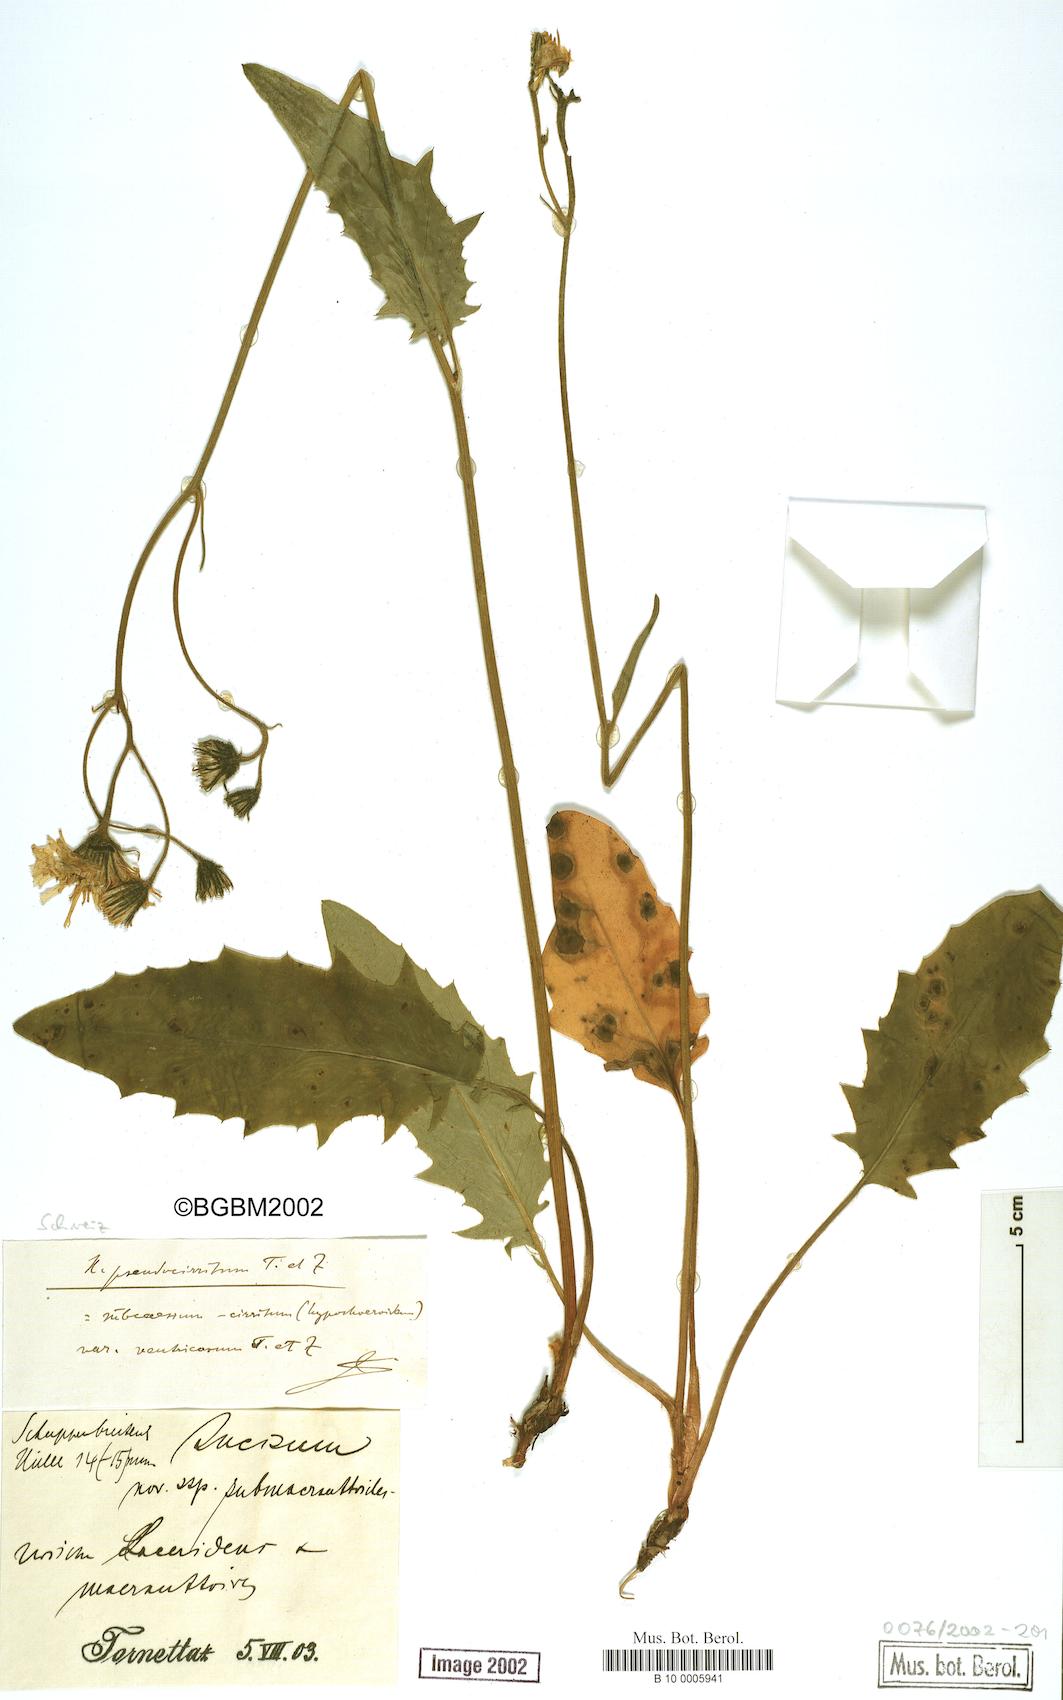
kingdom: Plantae
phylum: Tracheophyta
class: Magnoliopsida
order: Asterales
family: Asteraceae
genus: Hieracium
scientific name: Hieracium cirritum
